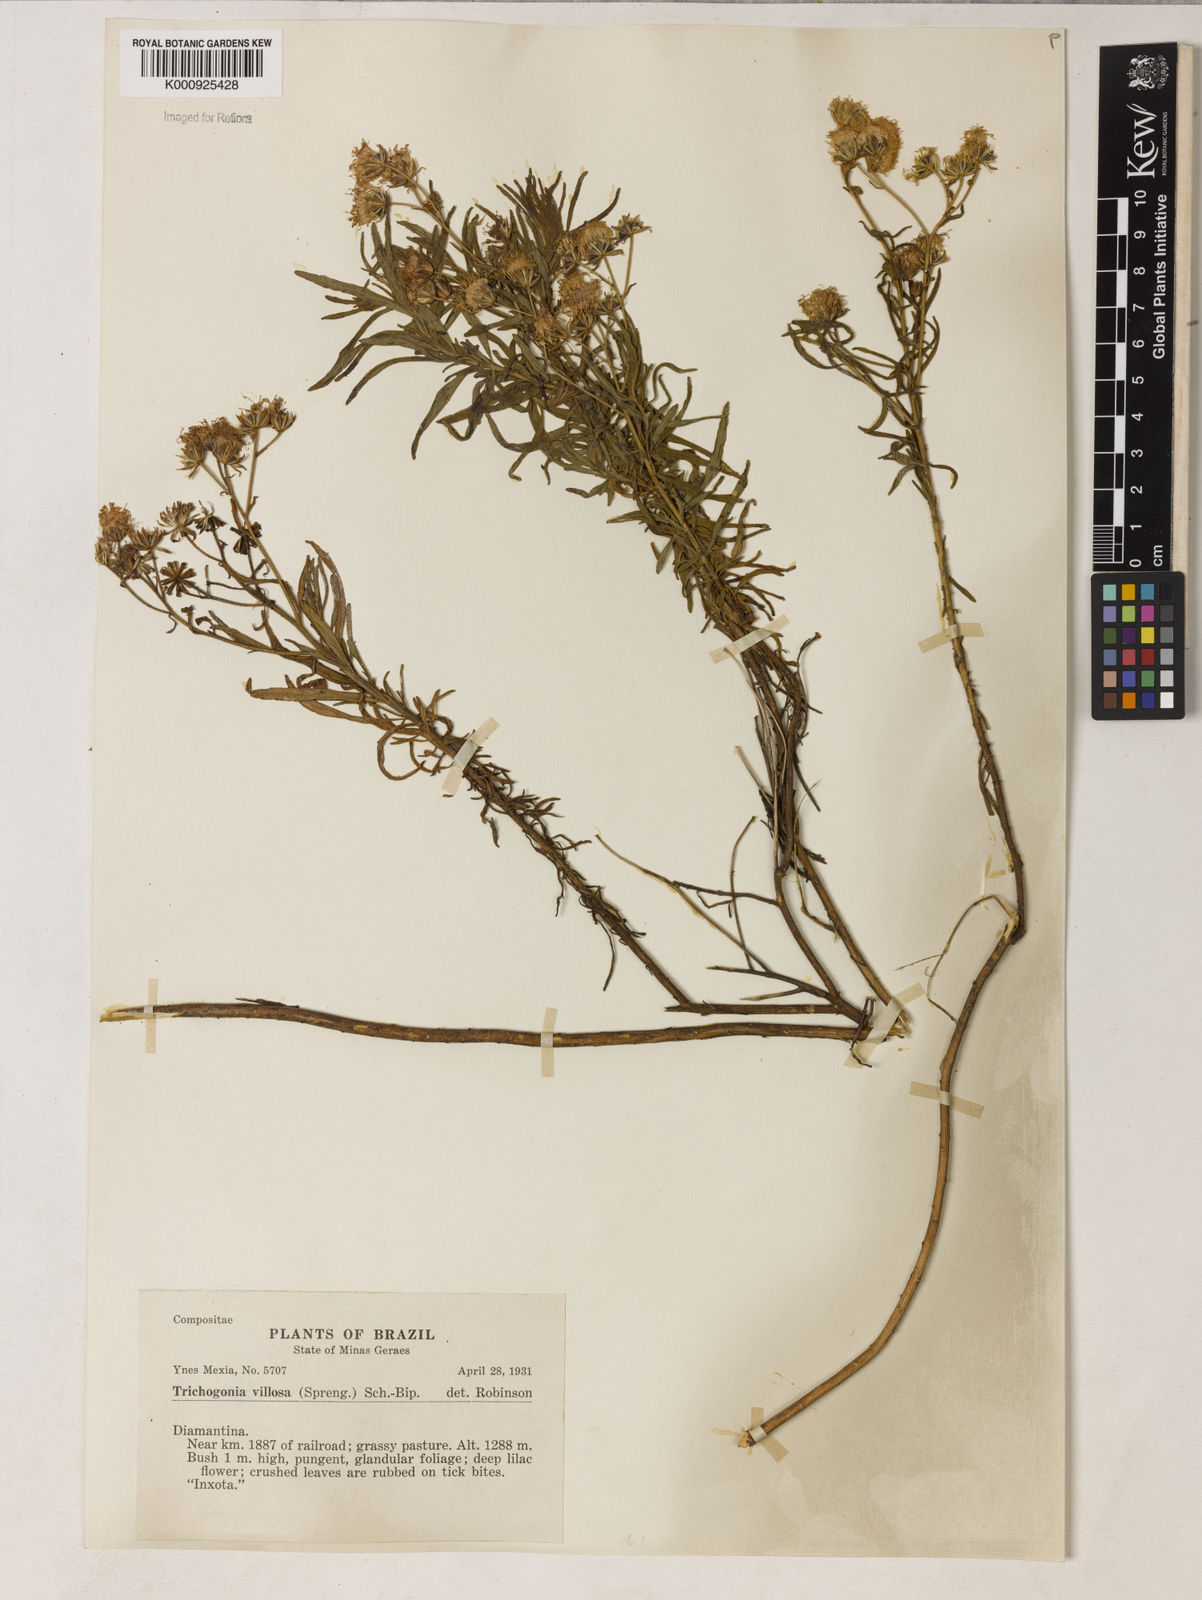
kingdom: Plantae
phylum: Tracheophyta
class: Magnoliopsida
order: Asterales
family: Asteraceae
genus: Trichogonia
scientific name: Trichogonia villosa
